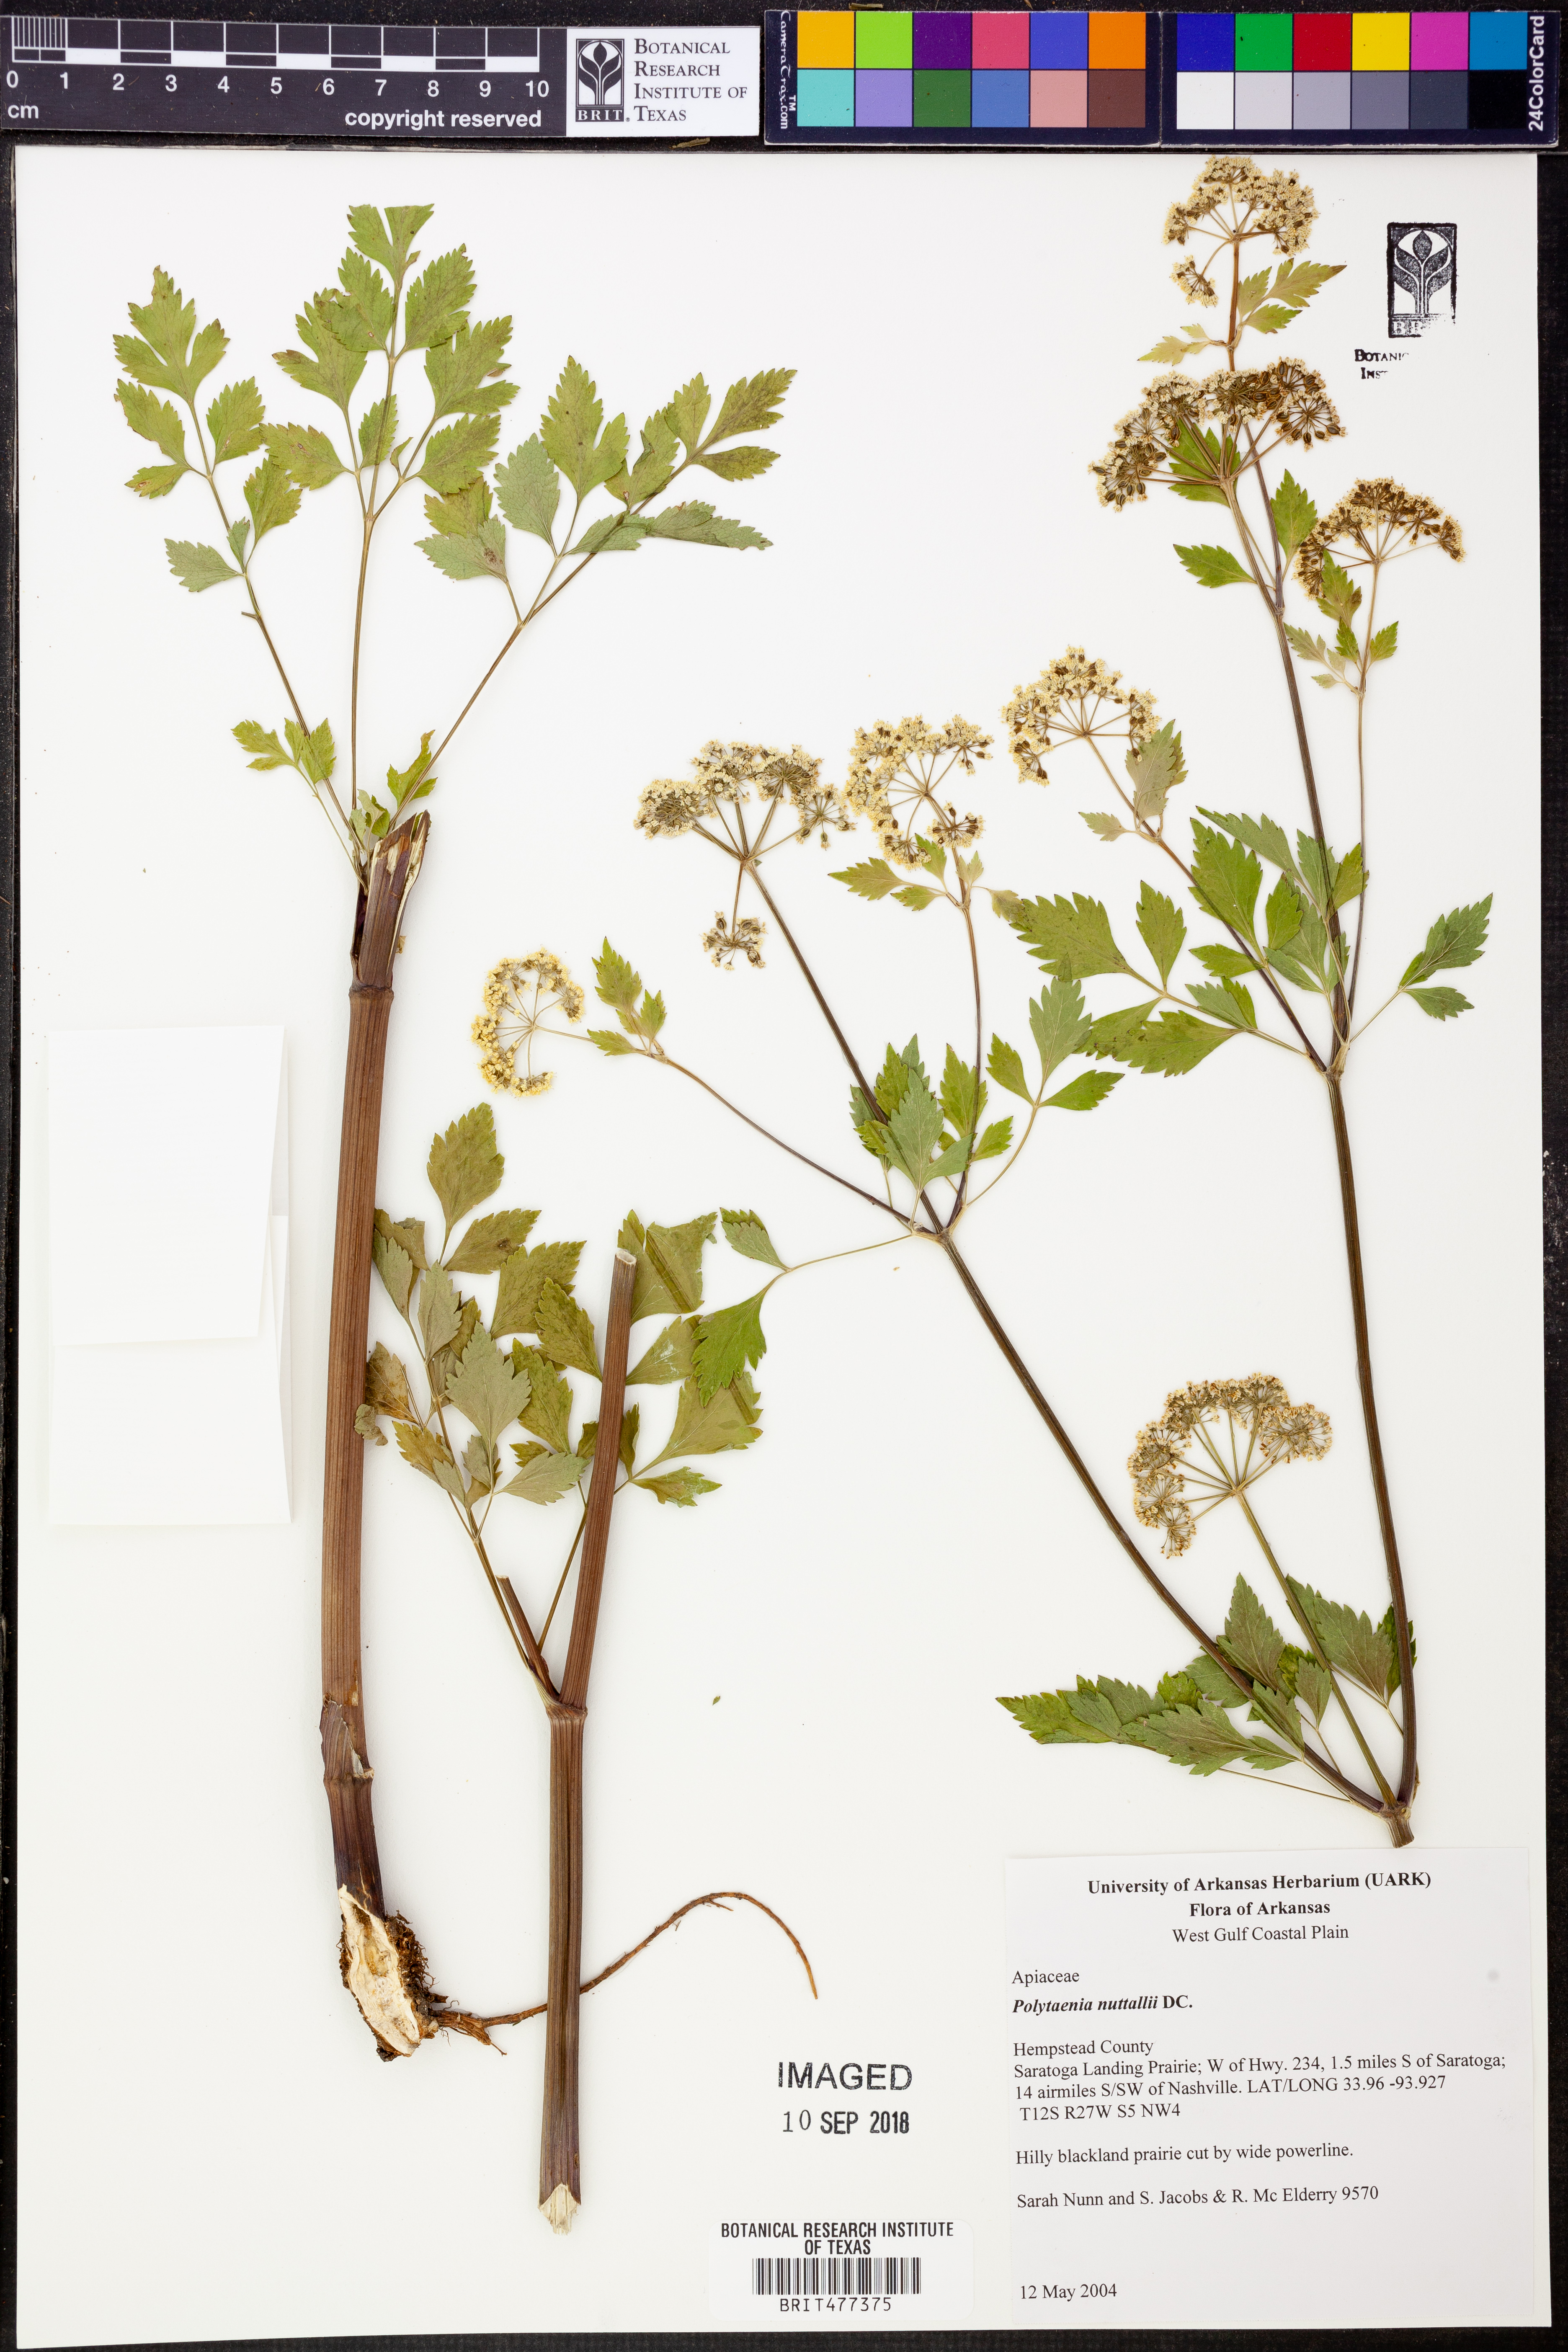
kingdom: Plantae
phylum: Tracheophyta
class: Magnoliopsida
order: Apiales
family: Apiaceae
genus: Polytaenia
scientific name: Polytaenia nuttallii
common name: Prairie-parsley
